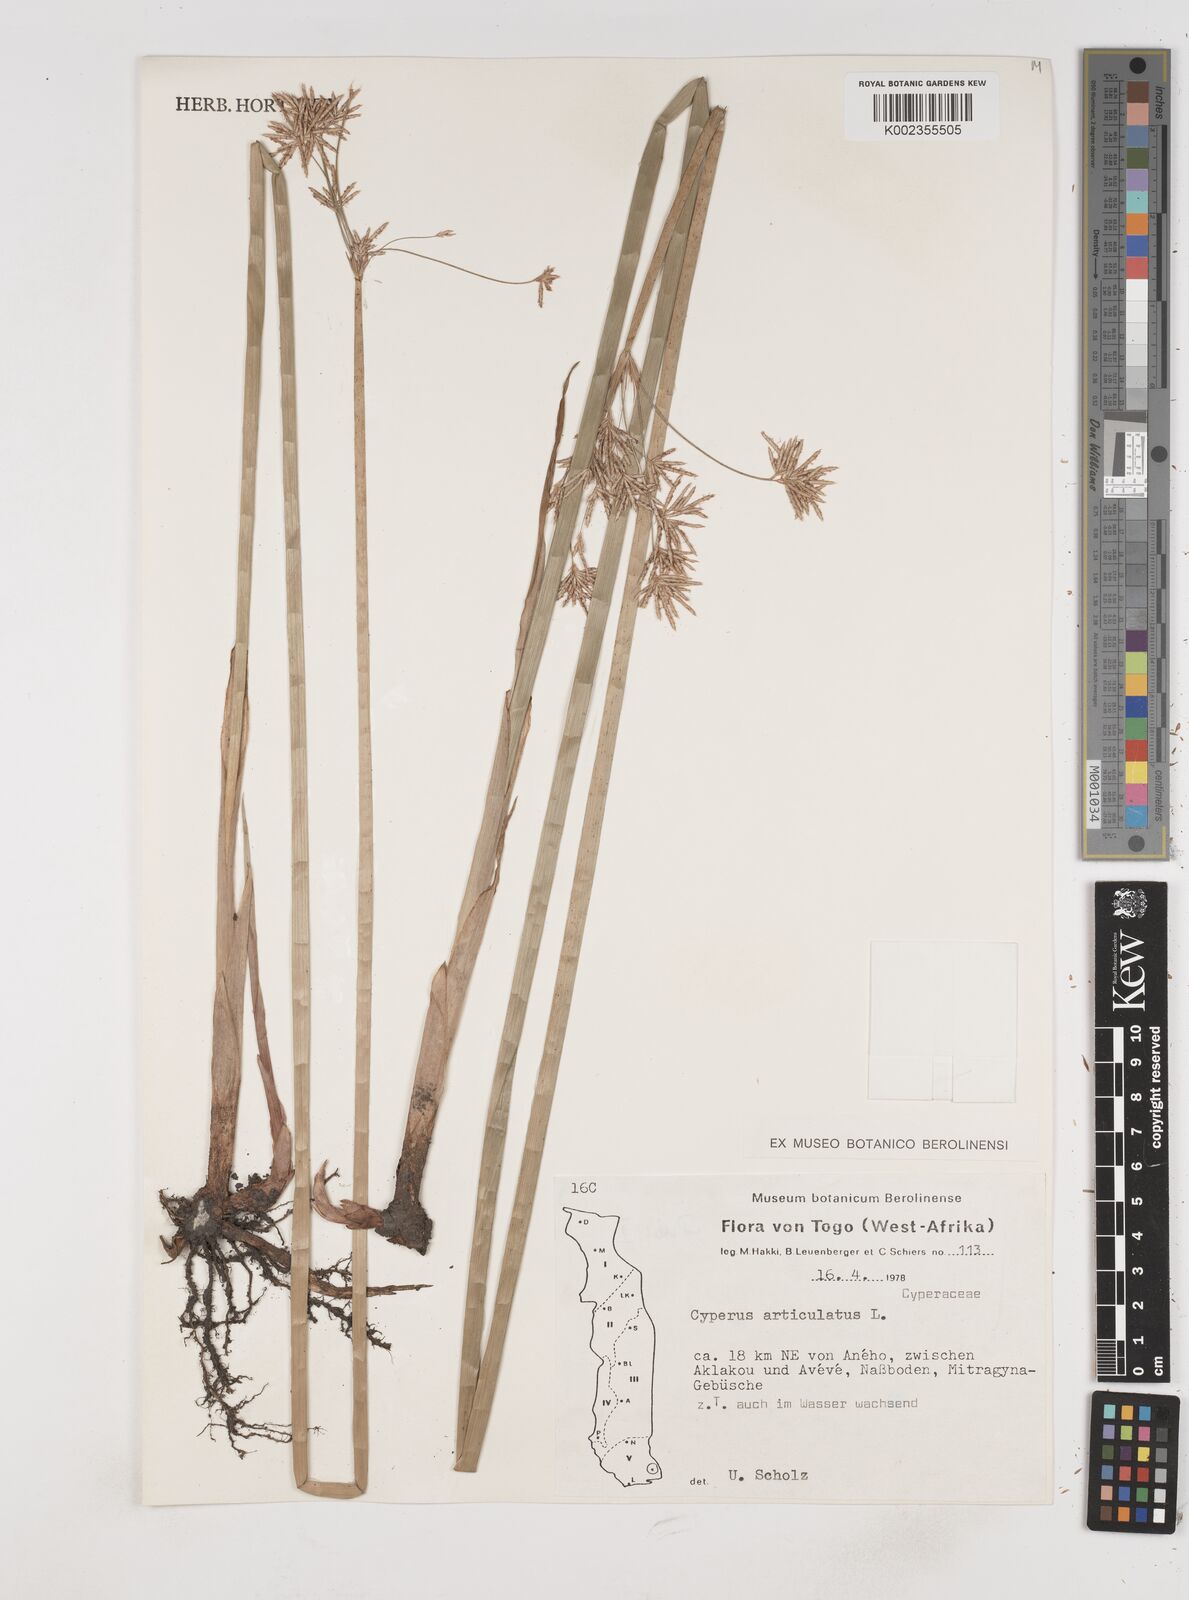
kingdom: Plantae
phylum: Tracheophyta
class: Liliopsida
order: Poales
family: Cyperaceae
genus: Cyperus
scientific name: Cyperus articulatus
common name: Jointed flatsedge
